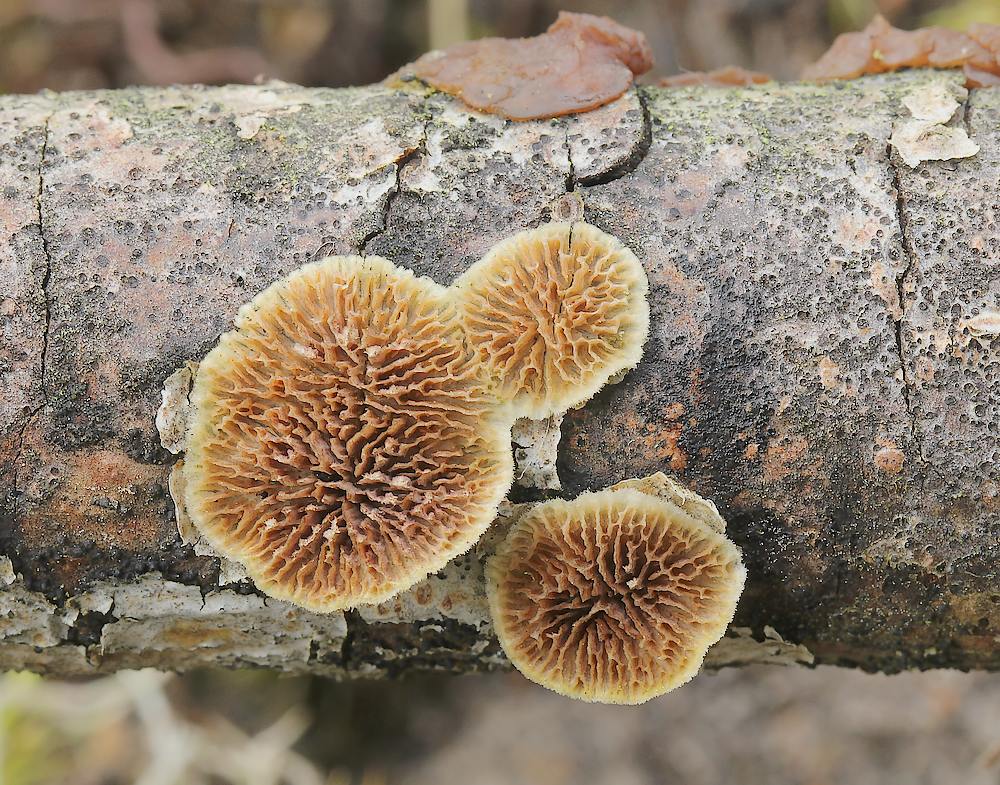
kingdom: Fungi
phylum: Basidiomycota
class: Agaricomycetes
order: Hymenochaetales
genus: Trichaptum
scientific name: Trichaptum fuscoviolaceum
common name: tandet violporesvamp
